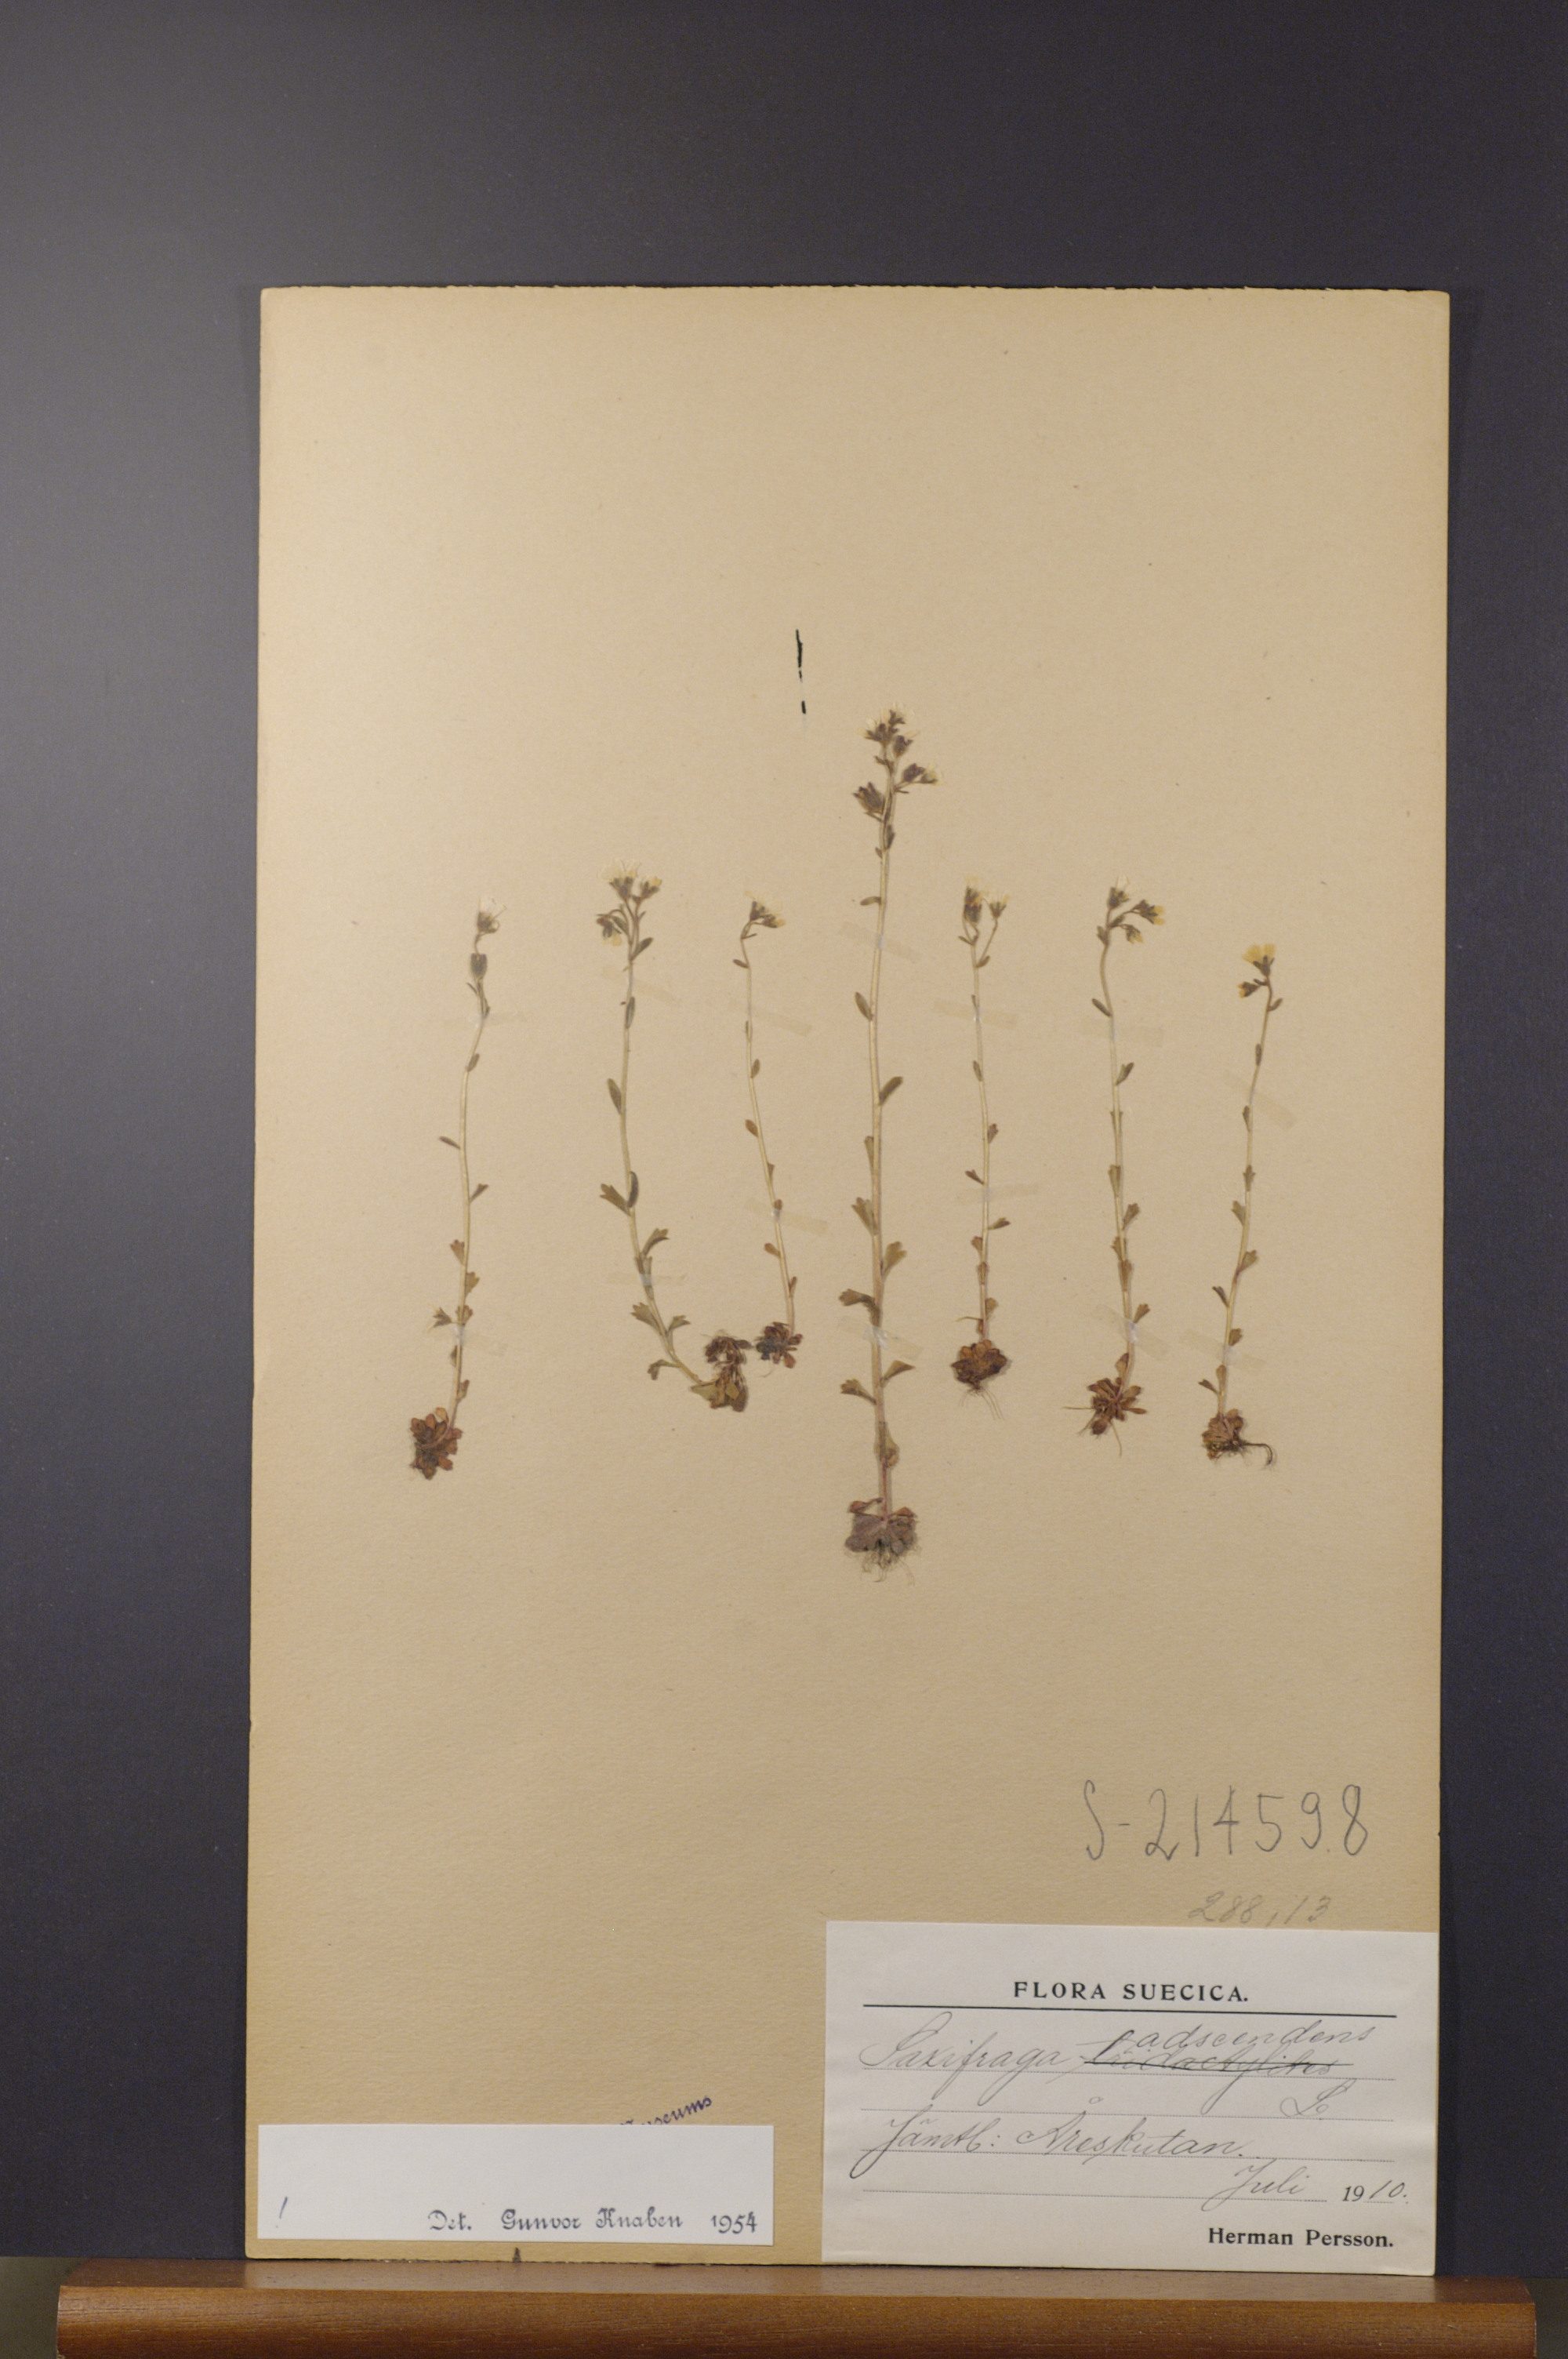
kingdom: Plantae
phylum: Tracheophyta
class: Magnoliopsida
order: Saxifragales
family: Saxifragaceae
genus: Saxifraga
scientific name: Saxifraga adscendens
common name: Ascending saxifrage
